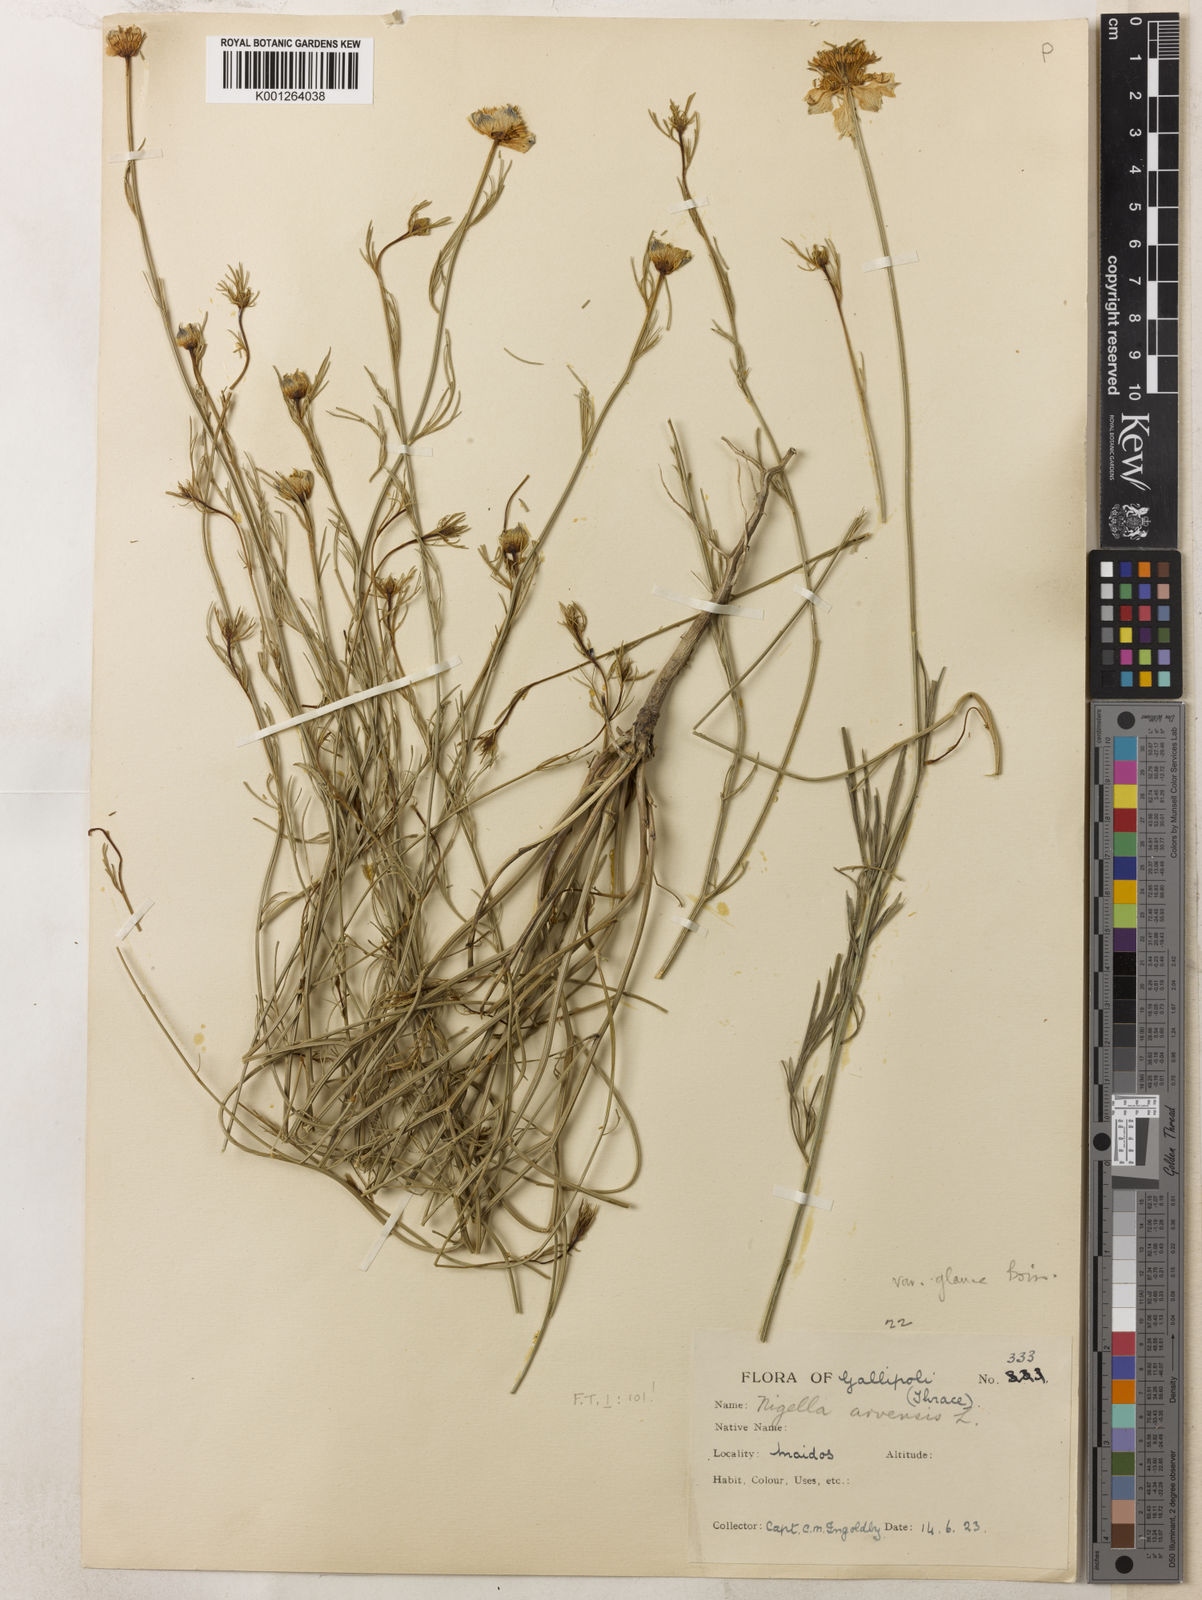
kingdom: Plantae
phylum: Tracheophyta
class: Magnoliopsida
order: Ranunculales
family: Ranunculaceae
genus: Nigella
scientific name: Nigella arvensis
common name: Wild fennel-flower
